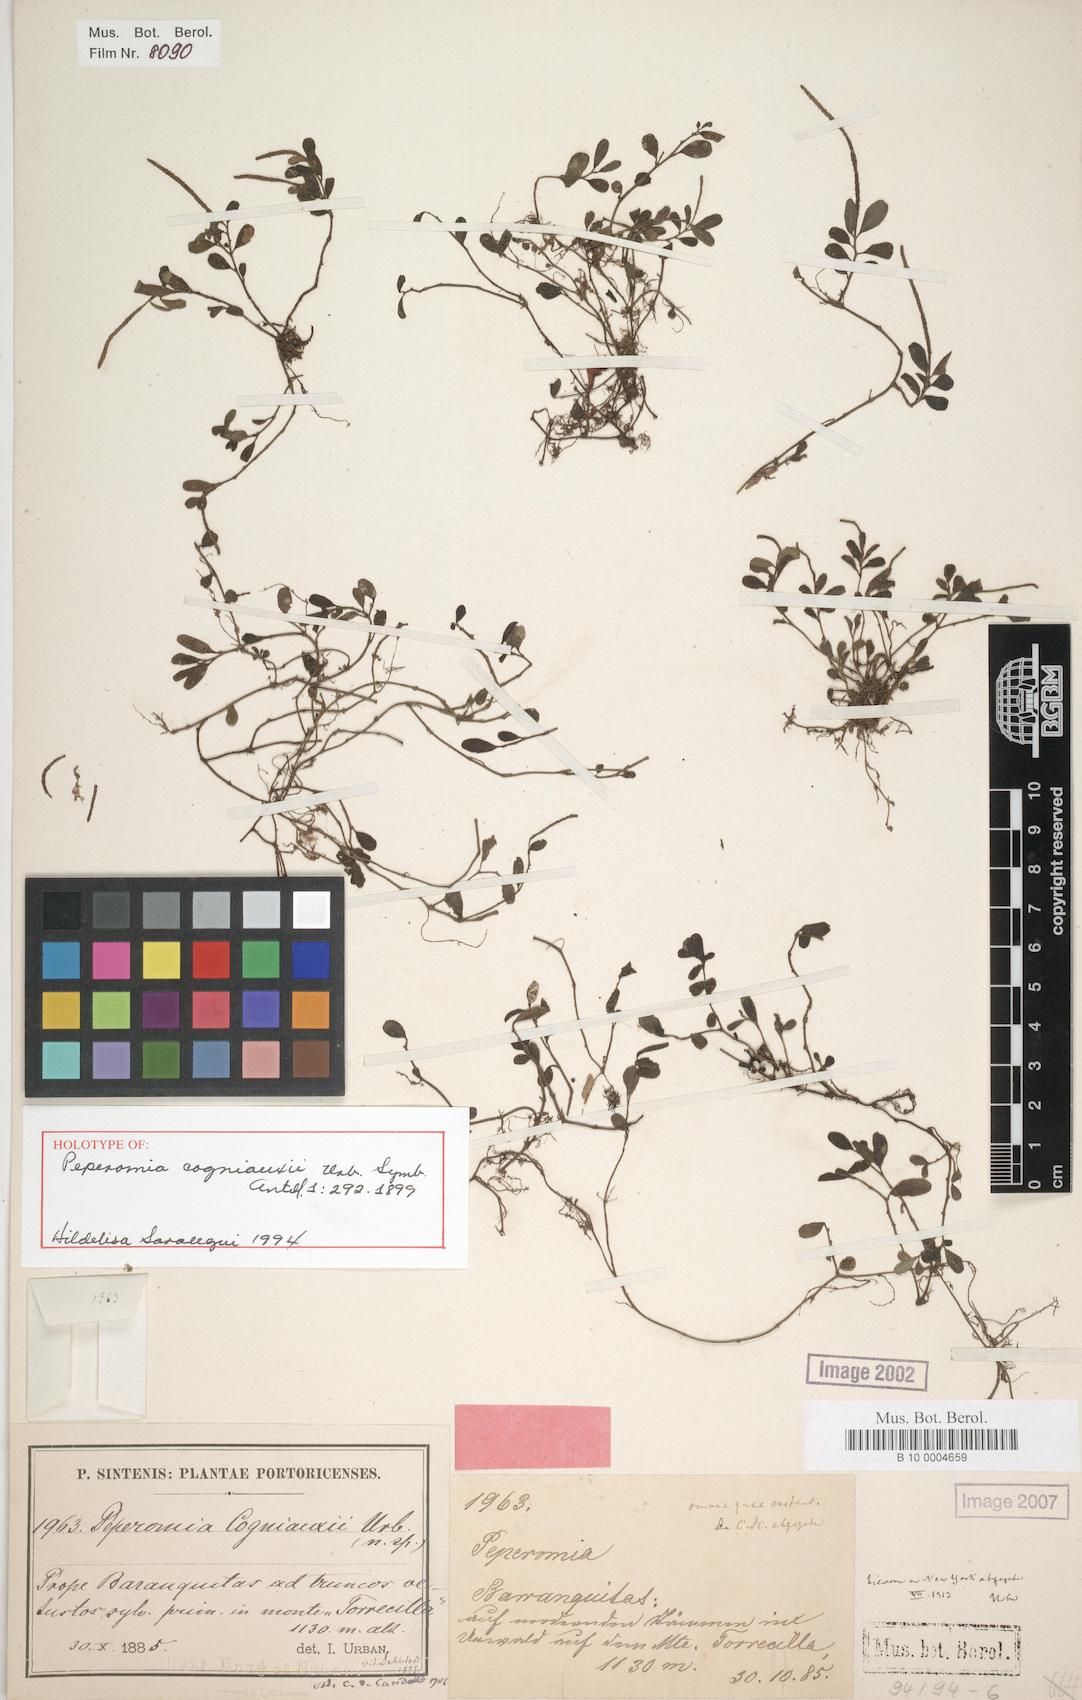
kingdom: Plantae
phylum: Tracheophyta
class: Magnoliopsida
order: Piperales
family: Piperaceae
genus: Peperomia
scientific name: Peperomia cogniauxii
